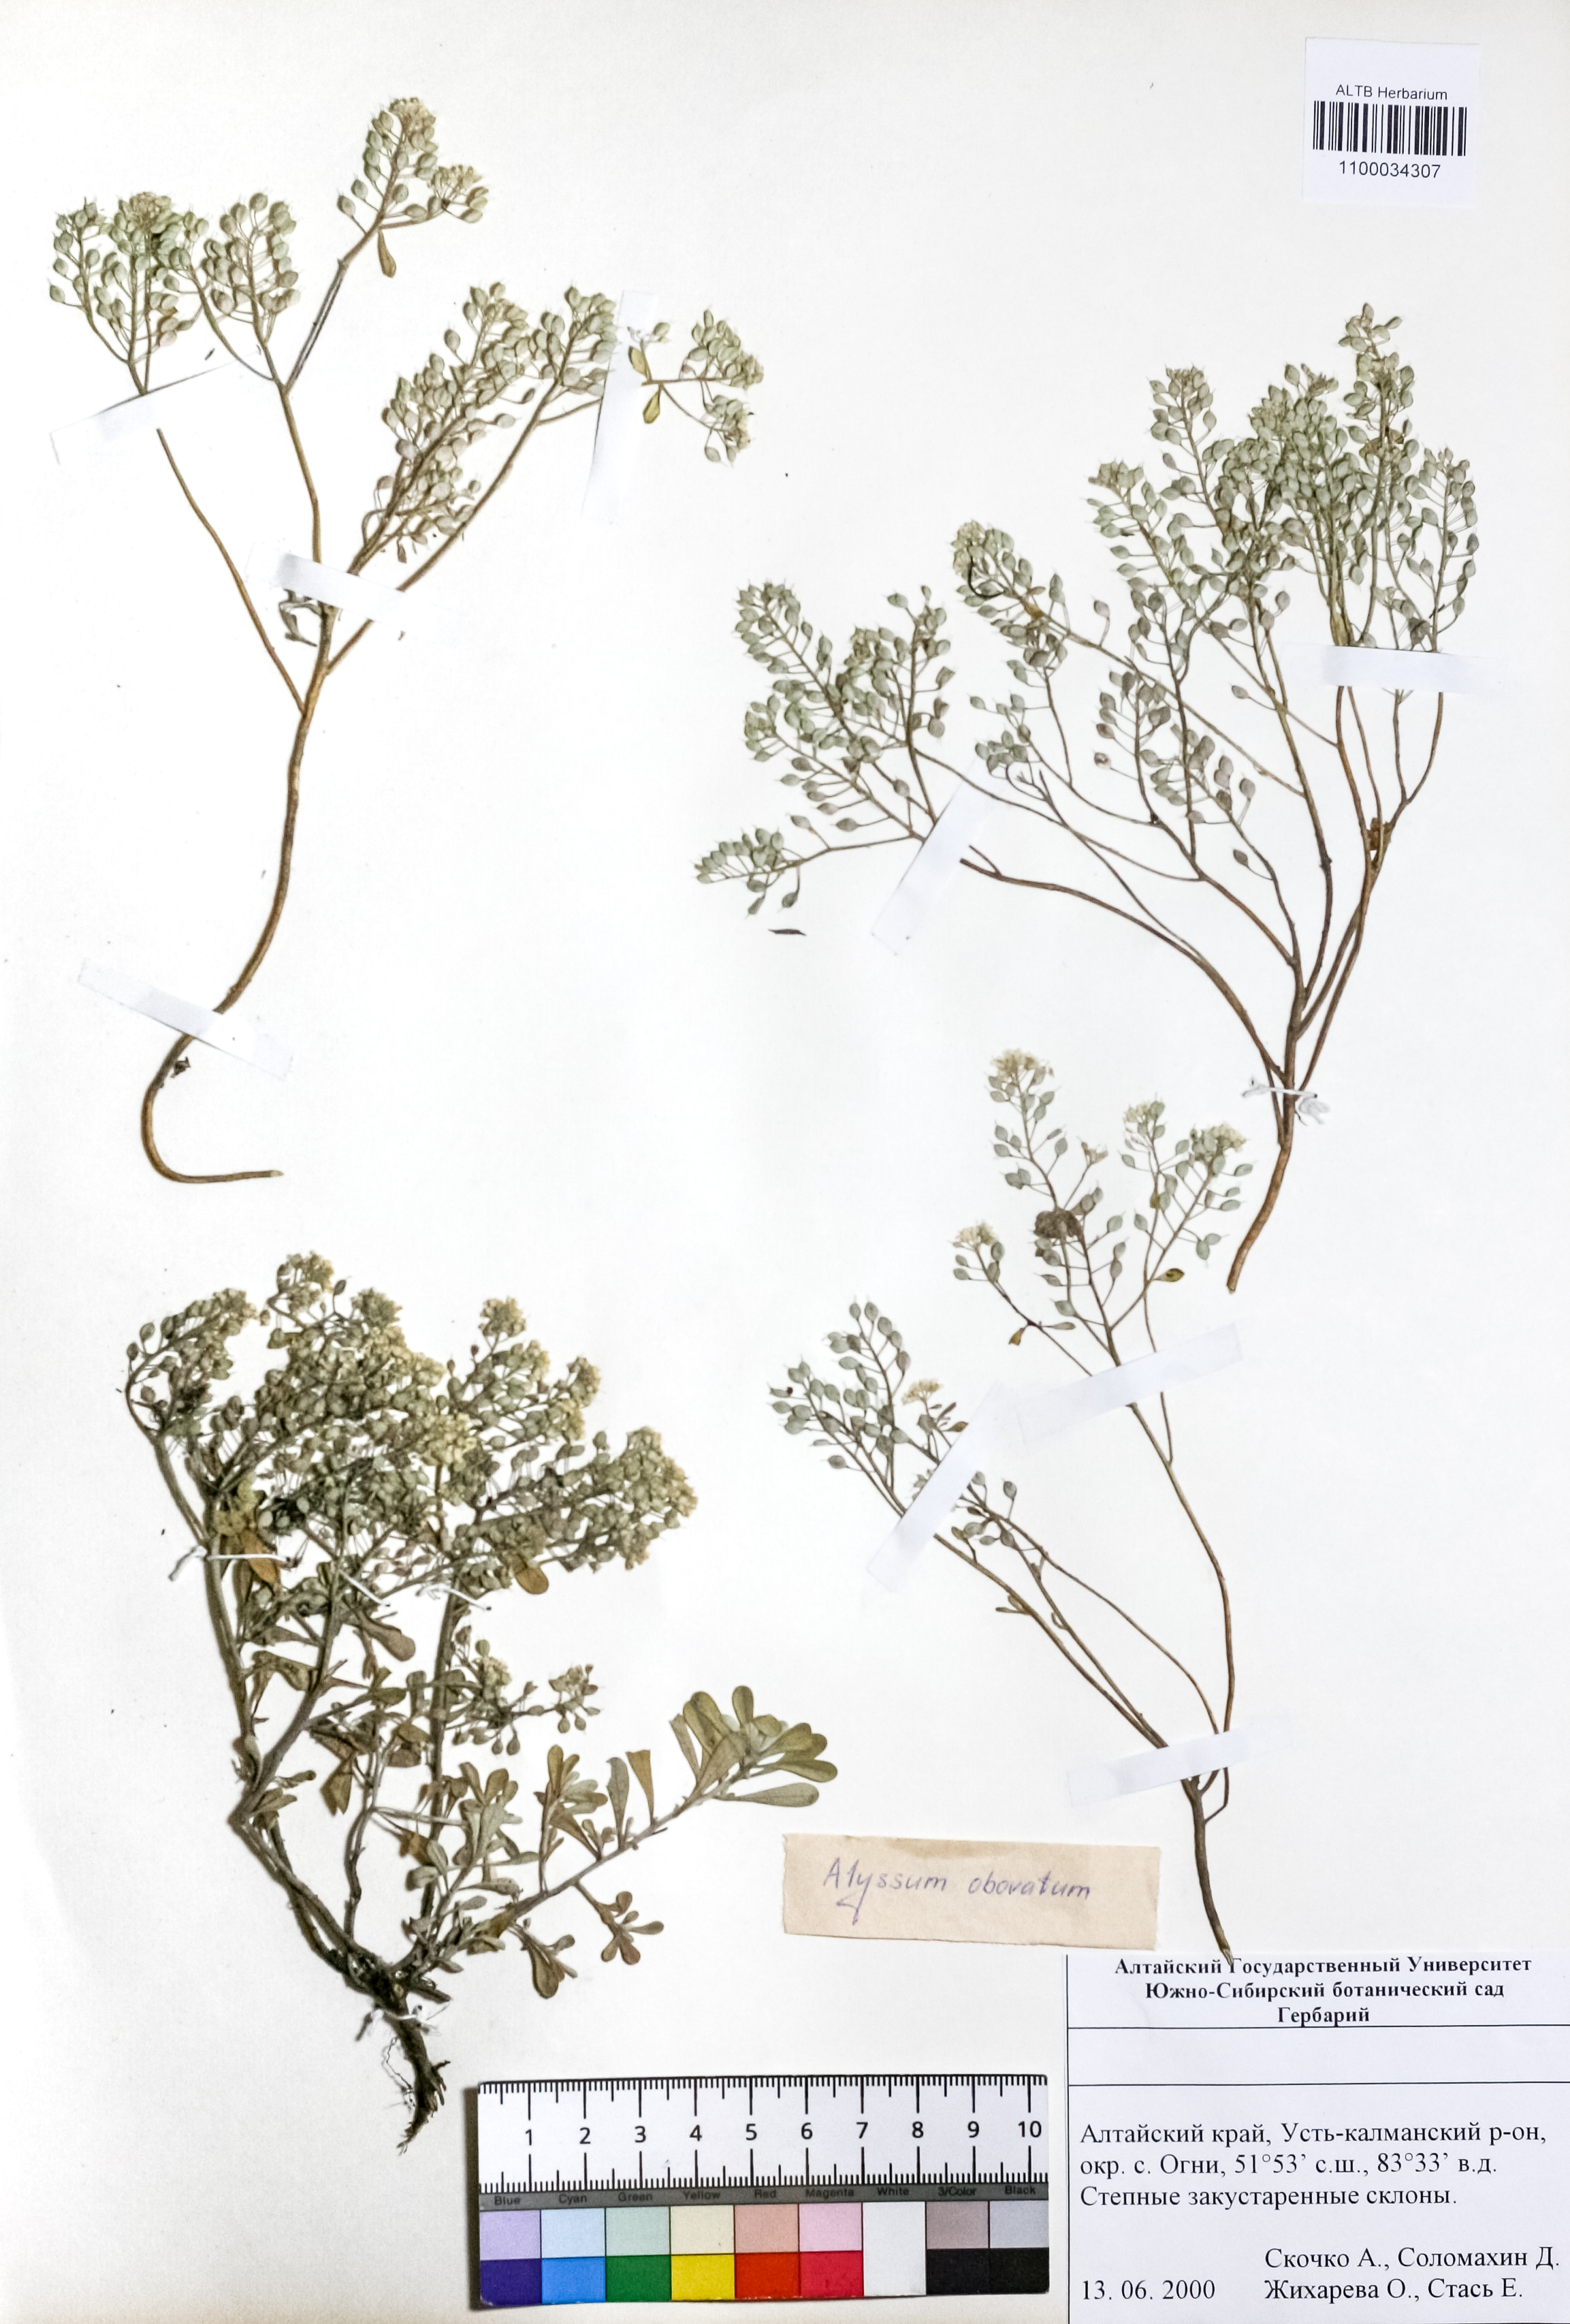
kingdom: Plantae
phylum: Tracheophyta
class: Magnoliopsida
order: Brassicales
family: Brassicaceae
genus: Odontarrhena
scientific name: Odontarrhena obovata
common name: American alyssum
